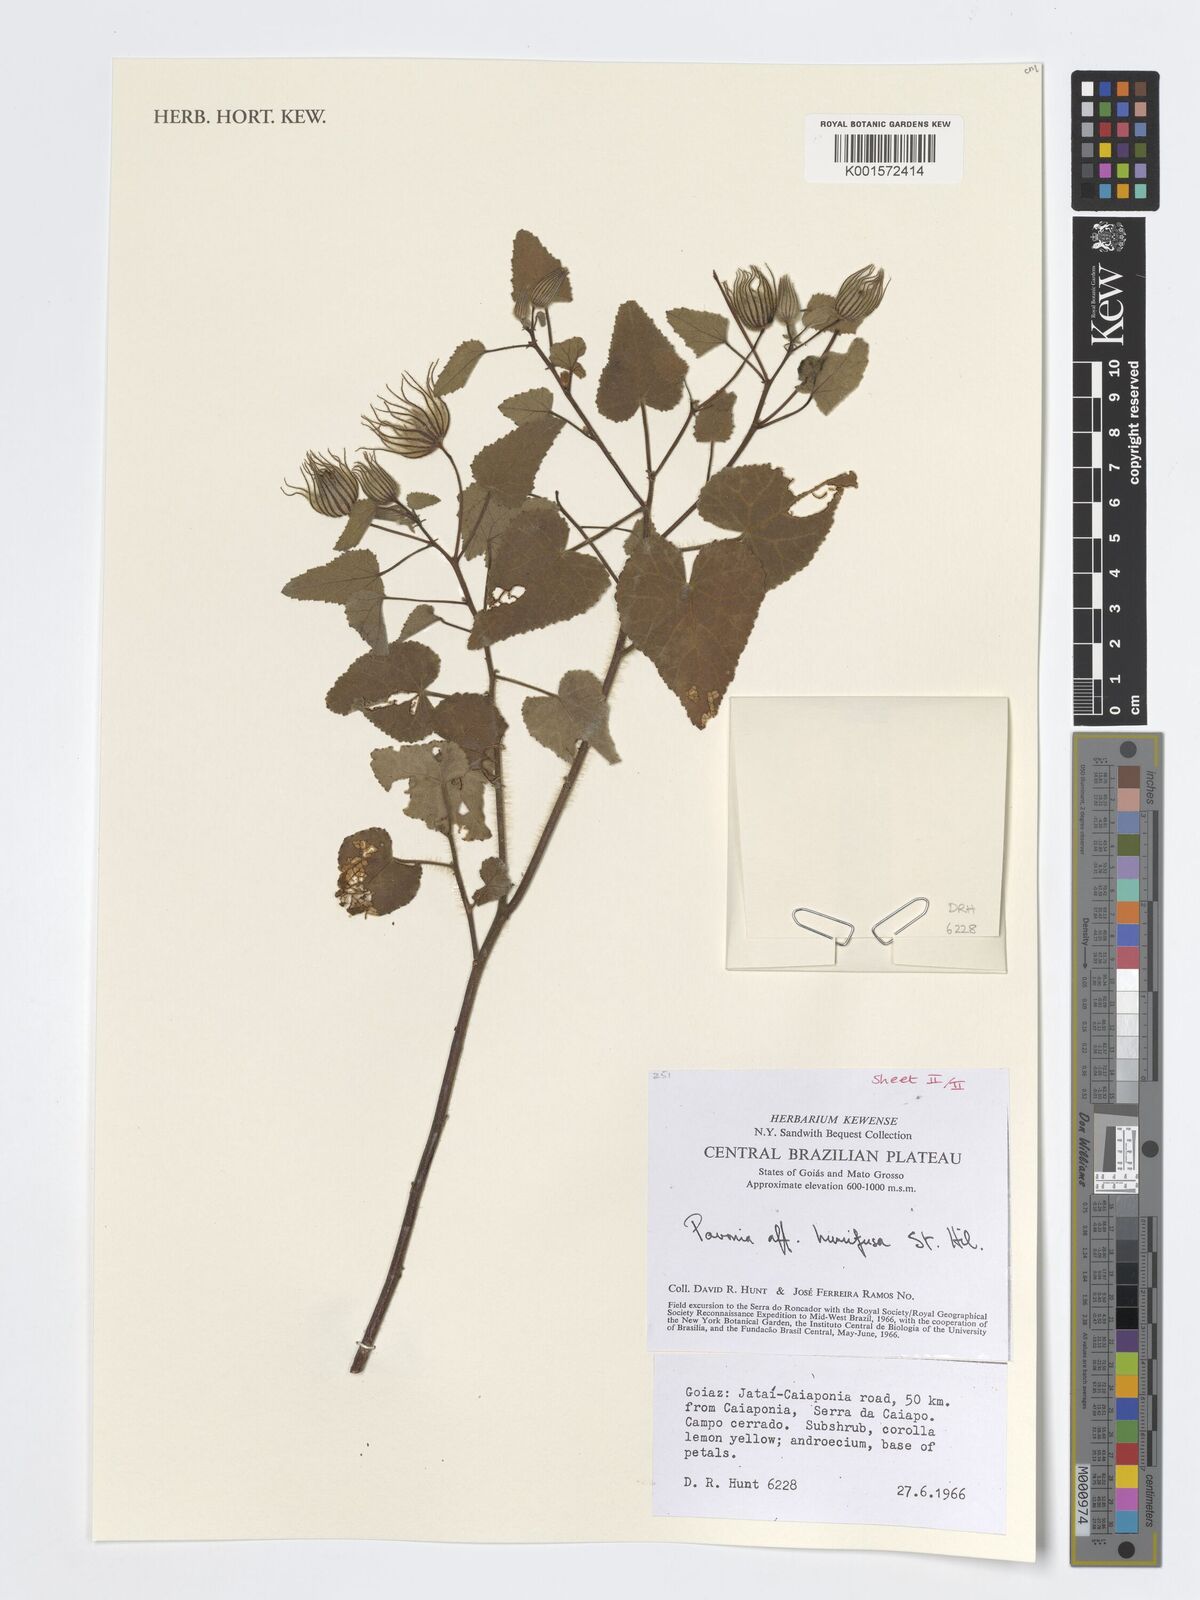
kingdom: Plantae
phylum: Tracheophyta
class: Magnoliopsida
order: Malvales
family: Malvaceae
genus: Pavonia
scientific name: Pavonia humifusa
